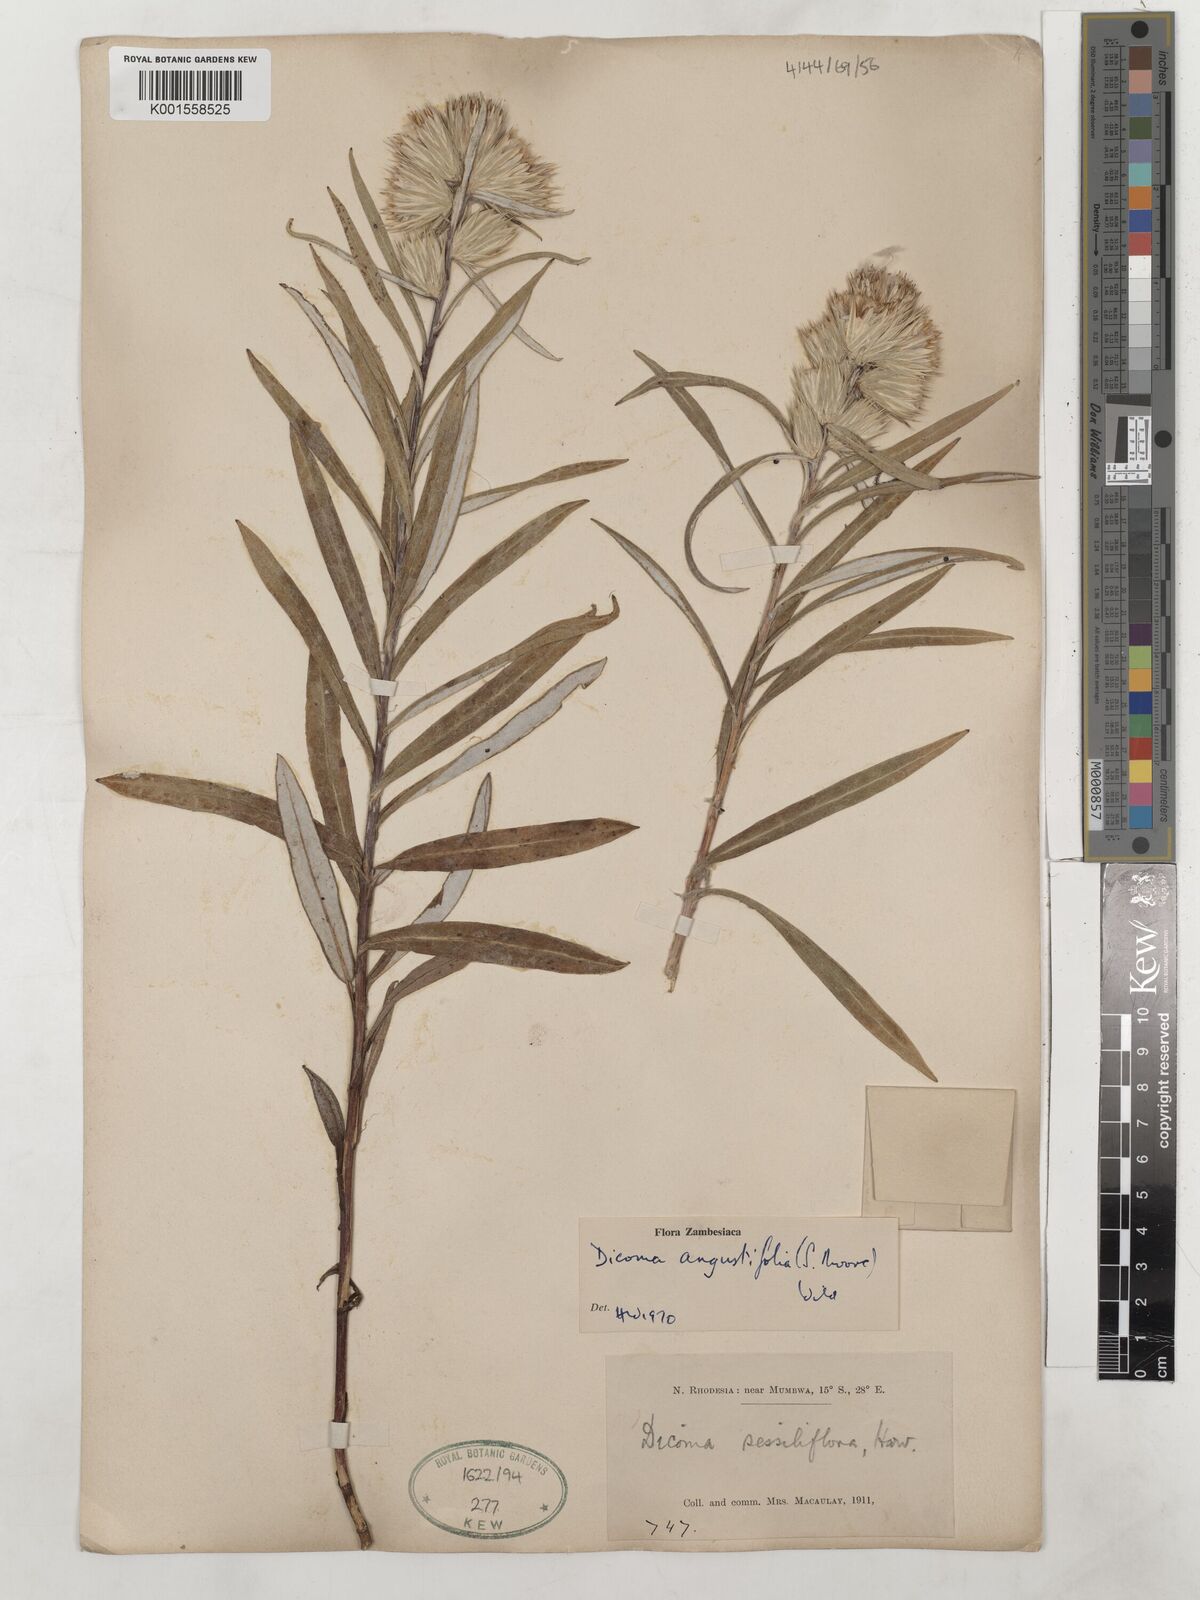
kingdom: Plantae
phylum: Tracheophyta
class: Magnoliopsida
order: Asterales
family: Asteraceae
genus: Macledium
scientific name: Macledium poggei
